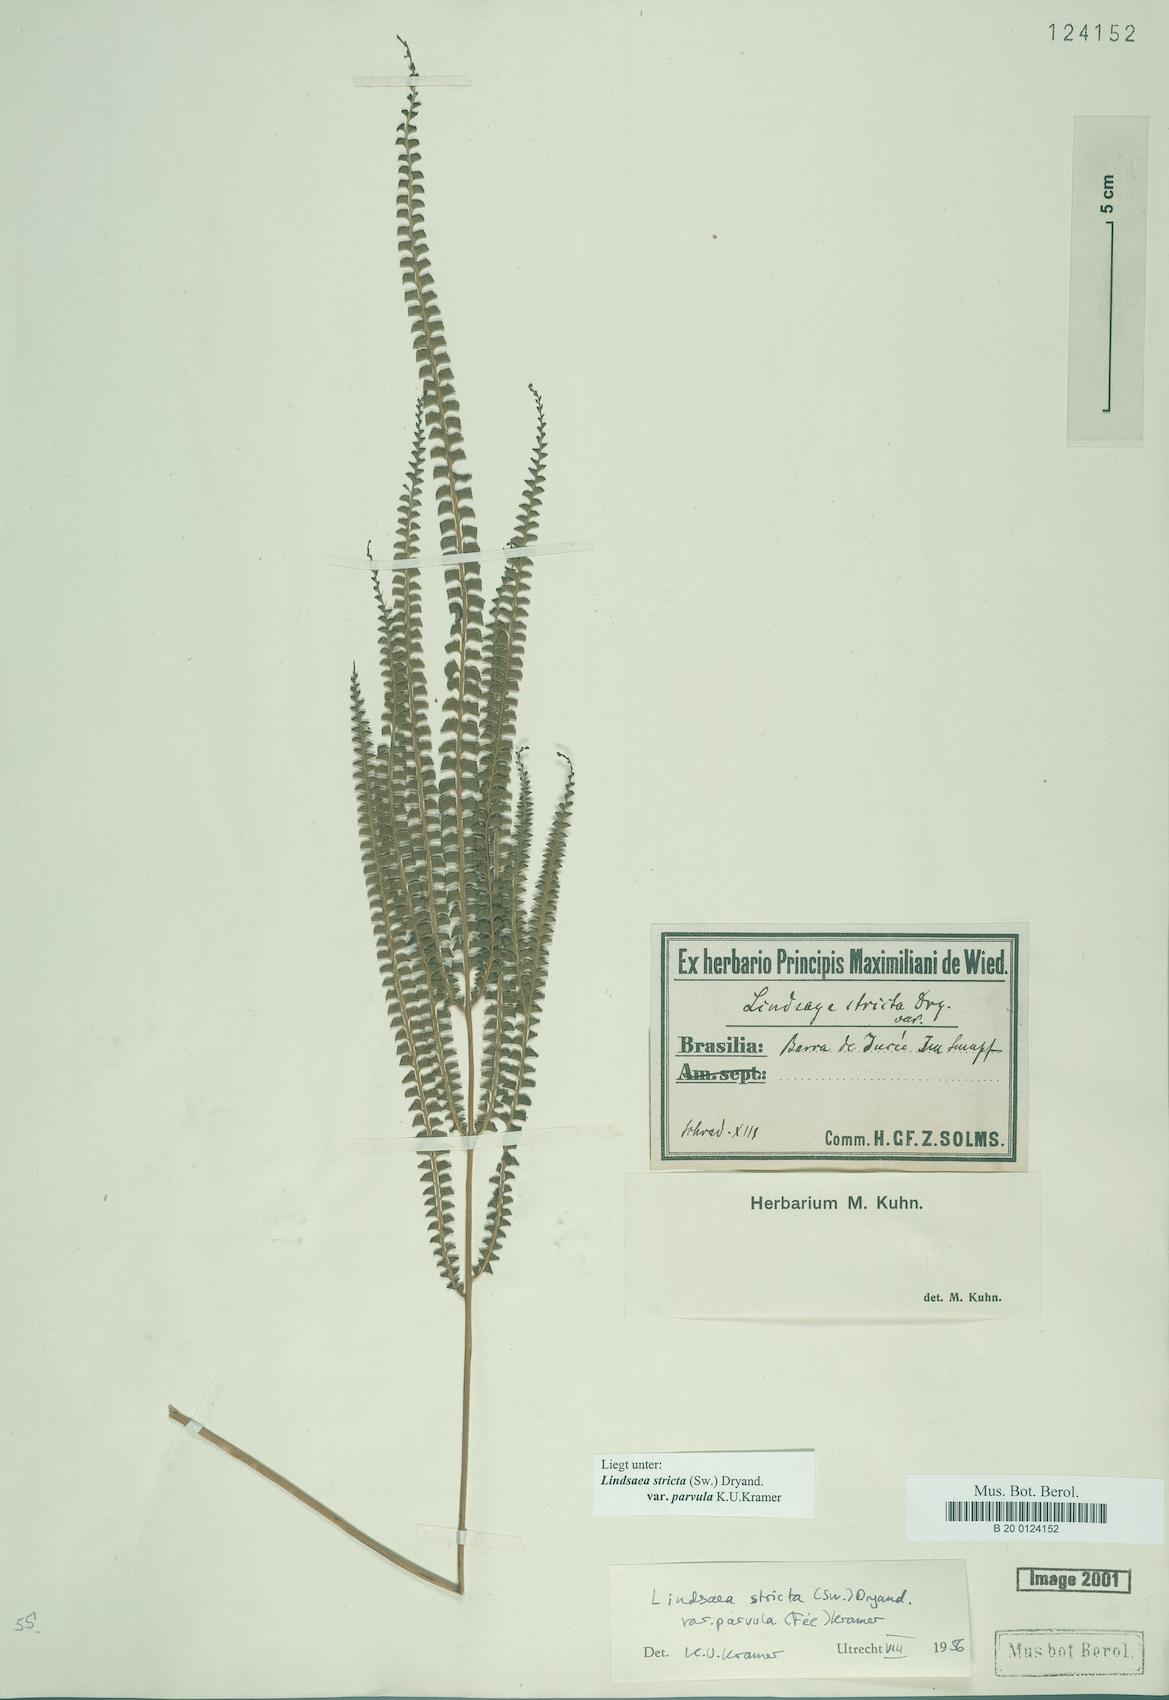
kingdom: Plantae
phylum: Tracheophyta
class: Polypodiopsida
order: Polypodiales
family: Lindsaeaceae
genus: Lindsaea
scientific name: Lindsaea stricta
